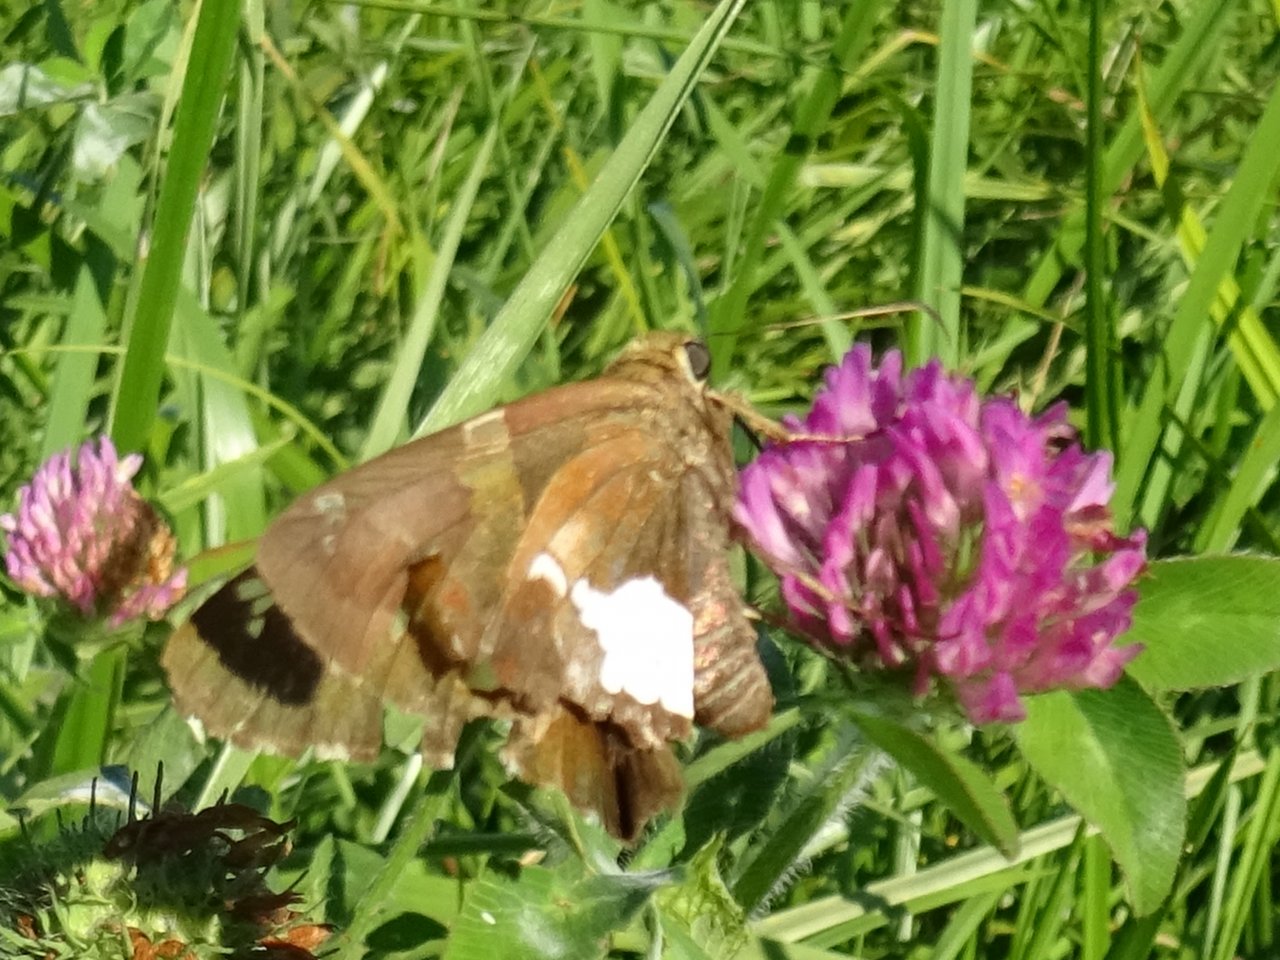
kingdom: Animalia
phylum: Arthropoda
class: Insecta
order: Lepidoptera
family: Hesperiidae
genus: Epargyreus
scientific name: Epargyreus clarus
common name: Silver-spotted Skipper
